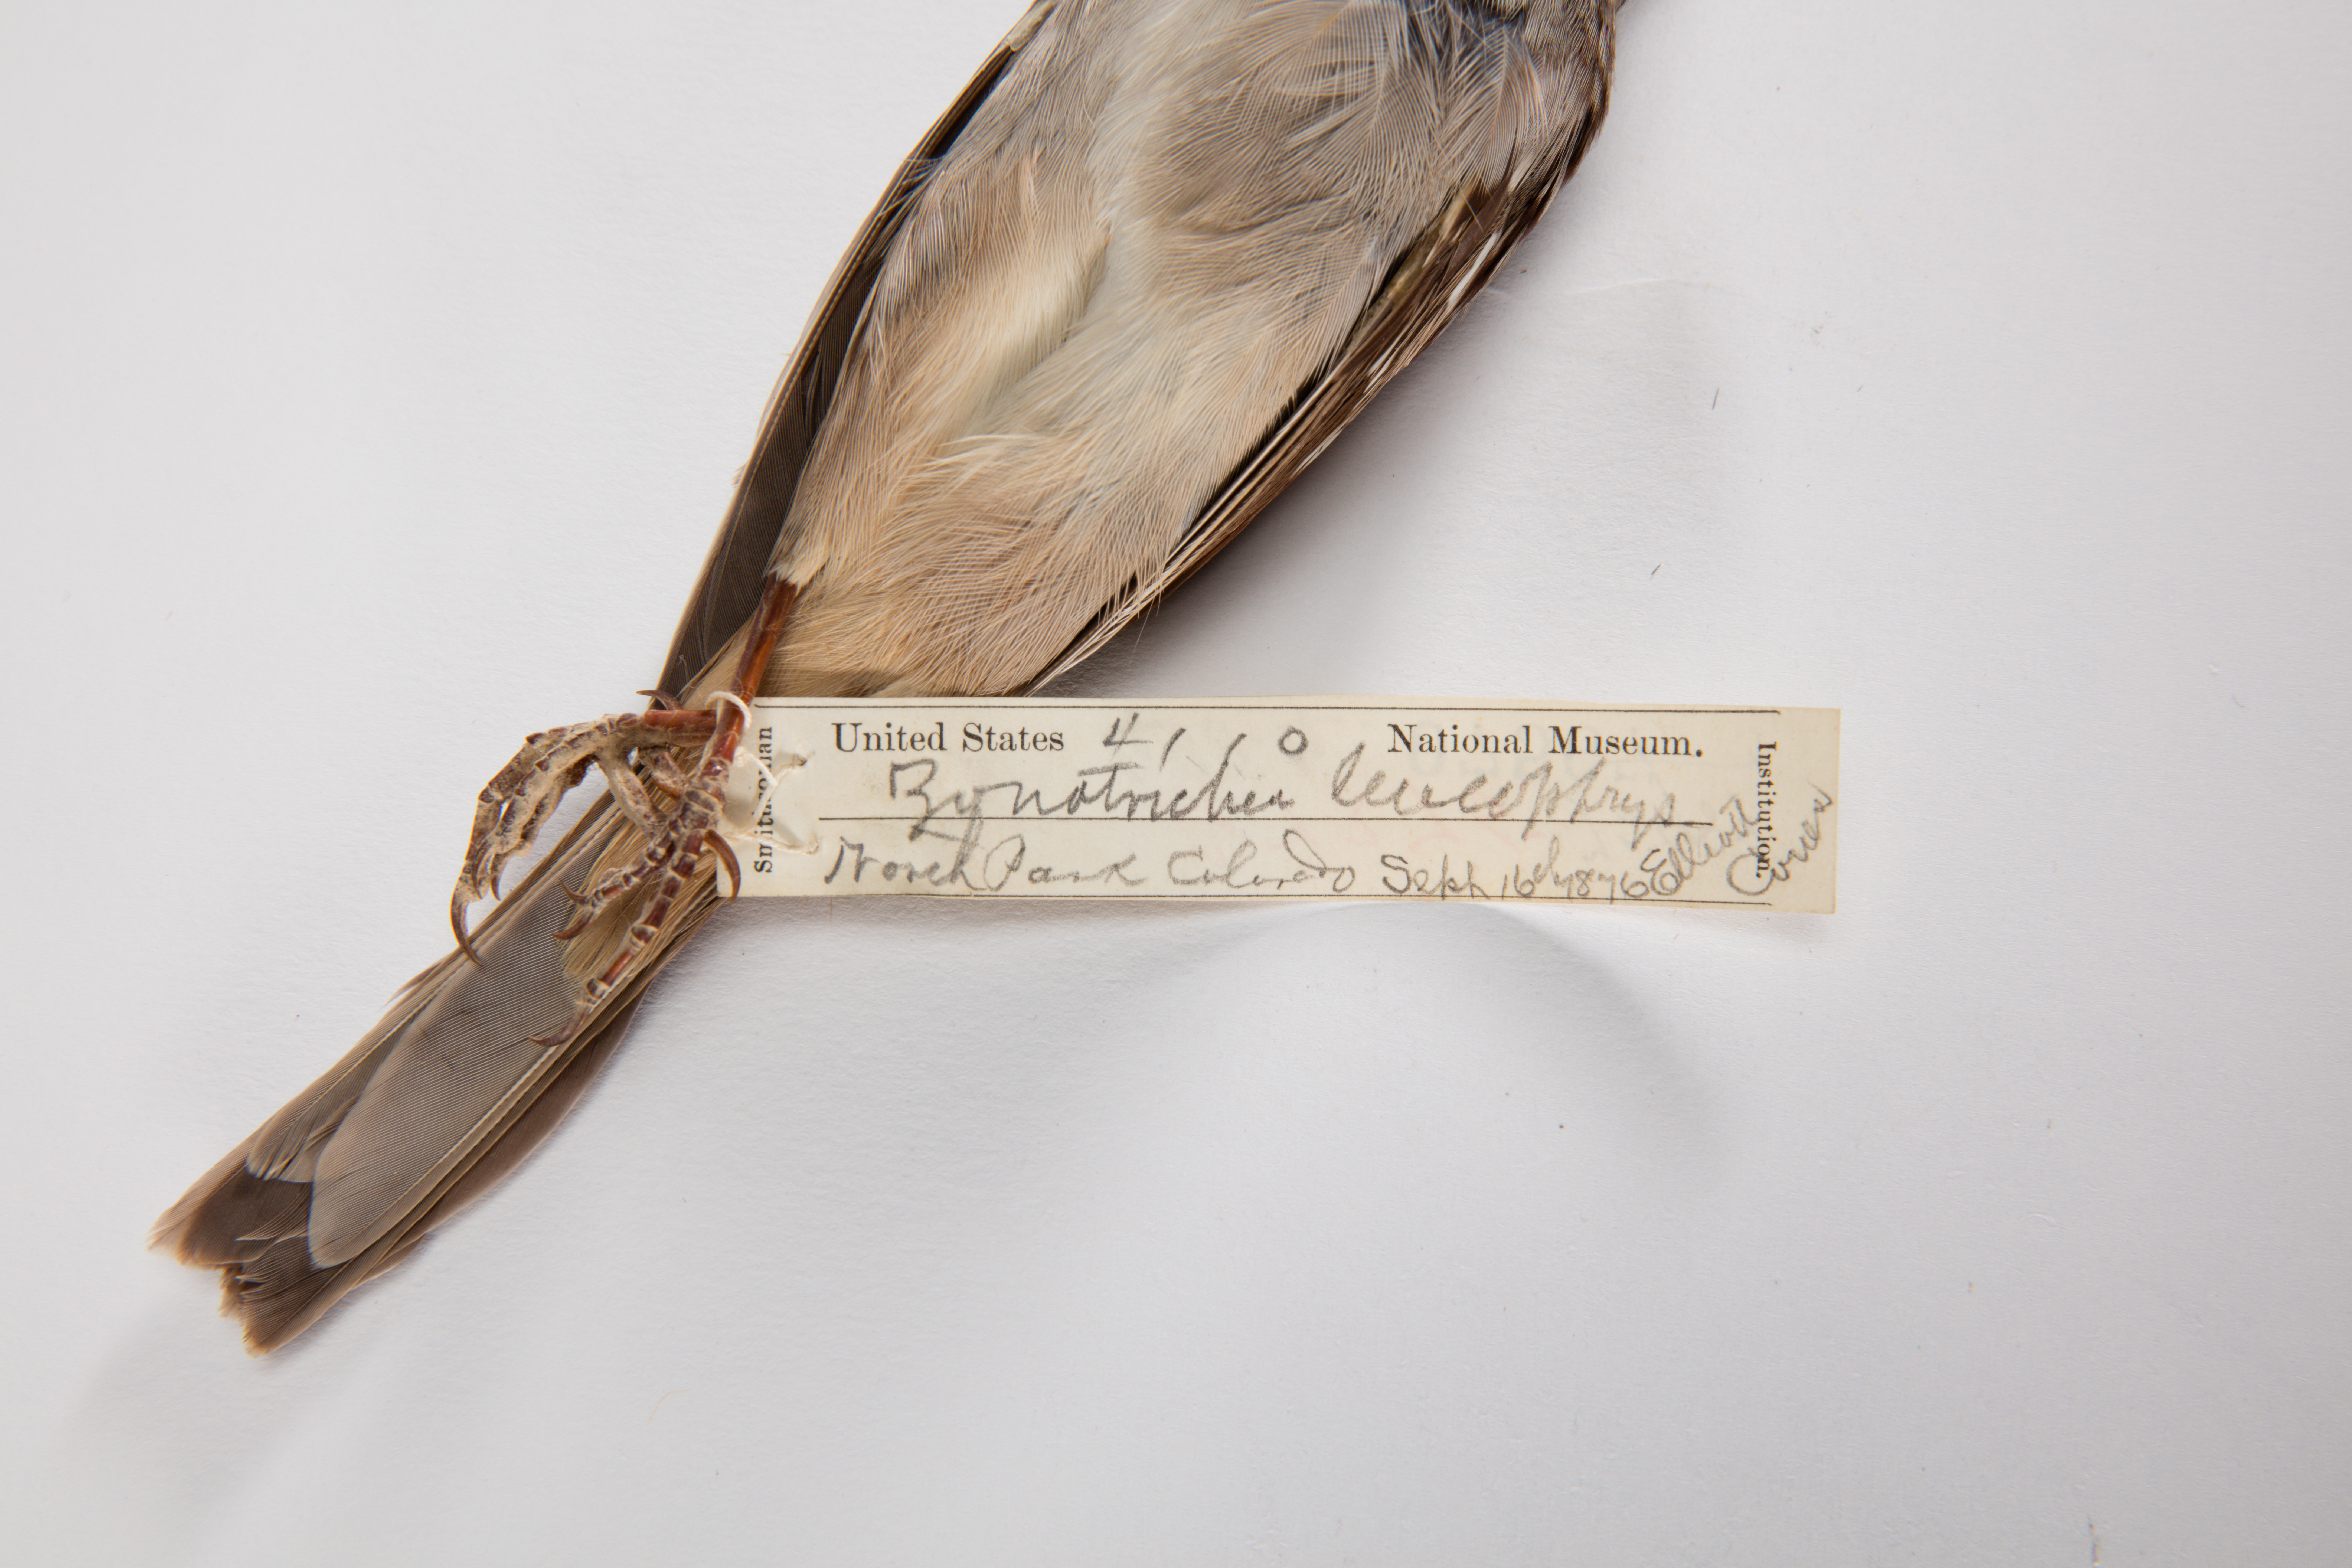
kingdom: Animalia
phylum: Chordata
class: Aves
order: Passeriformes
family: Passerellidae
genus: Zonotrichia
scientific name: Zonotrichia leucophrys
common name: White-crowned sparrow
